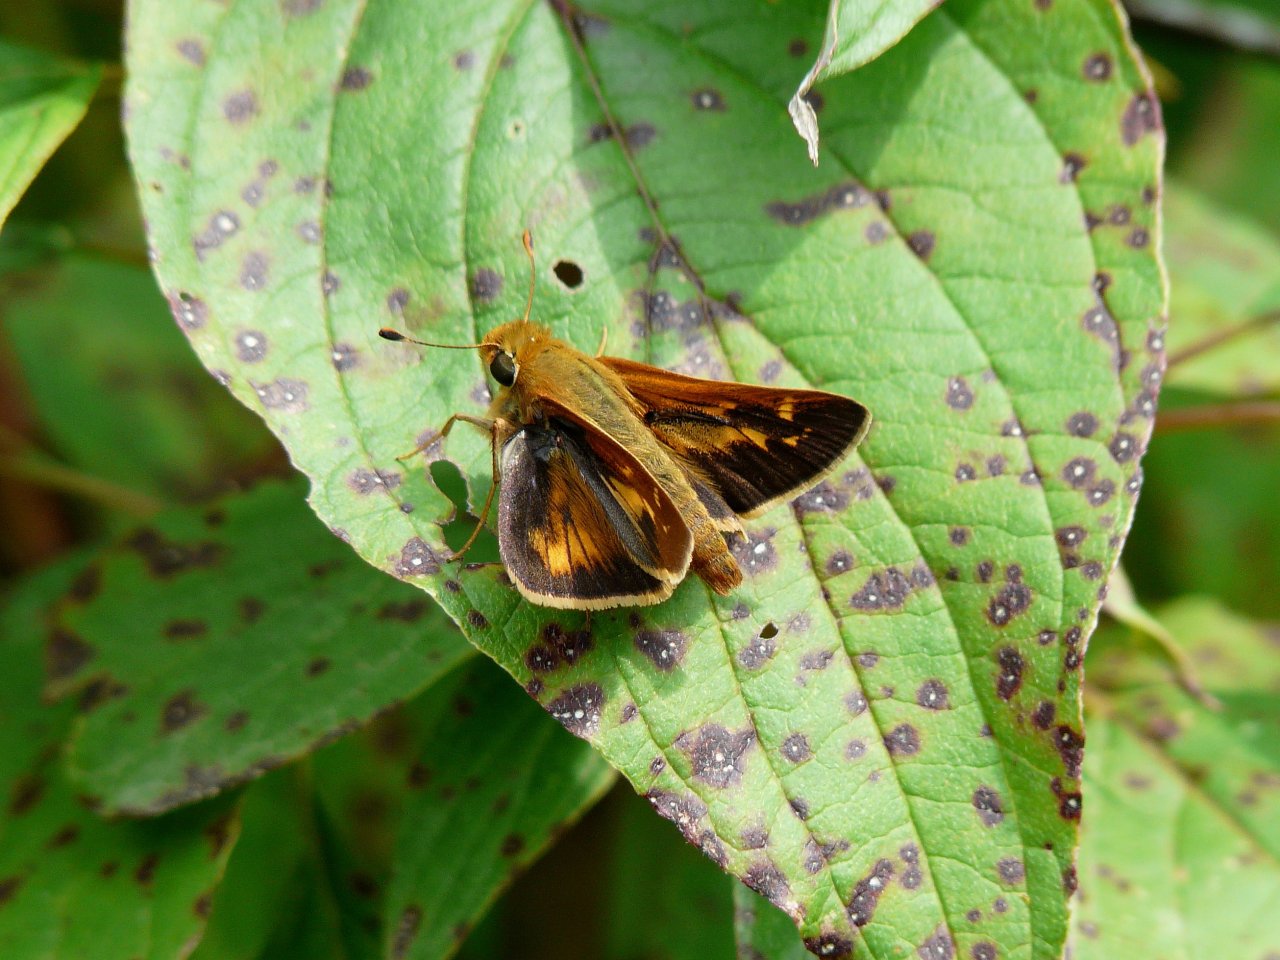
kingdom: Animalia
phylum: Arthropoda
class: Insecta
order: Lepidoptera
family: Hesperiidae
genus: Hesperia
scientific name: Hesperia leonardus
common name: Leonard's Skipper
